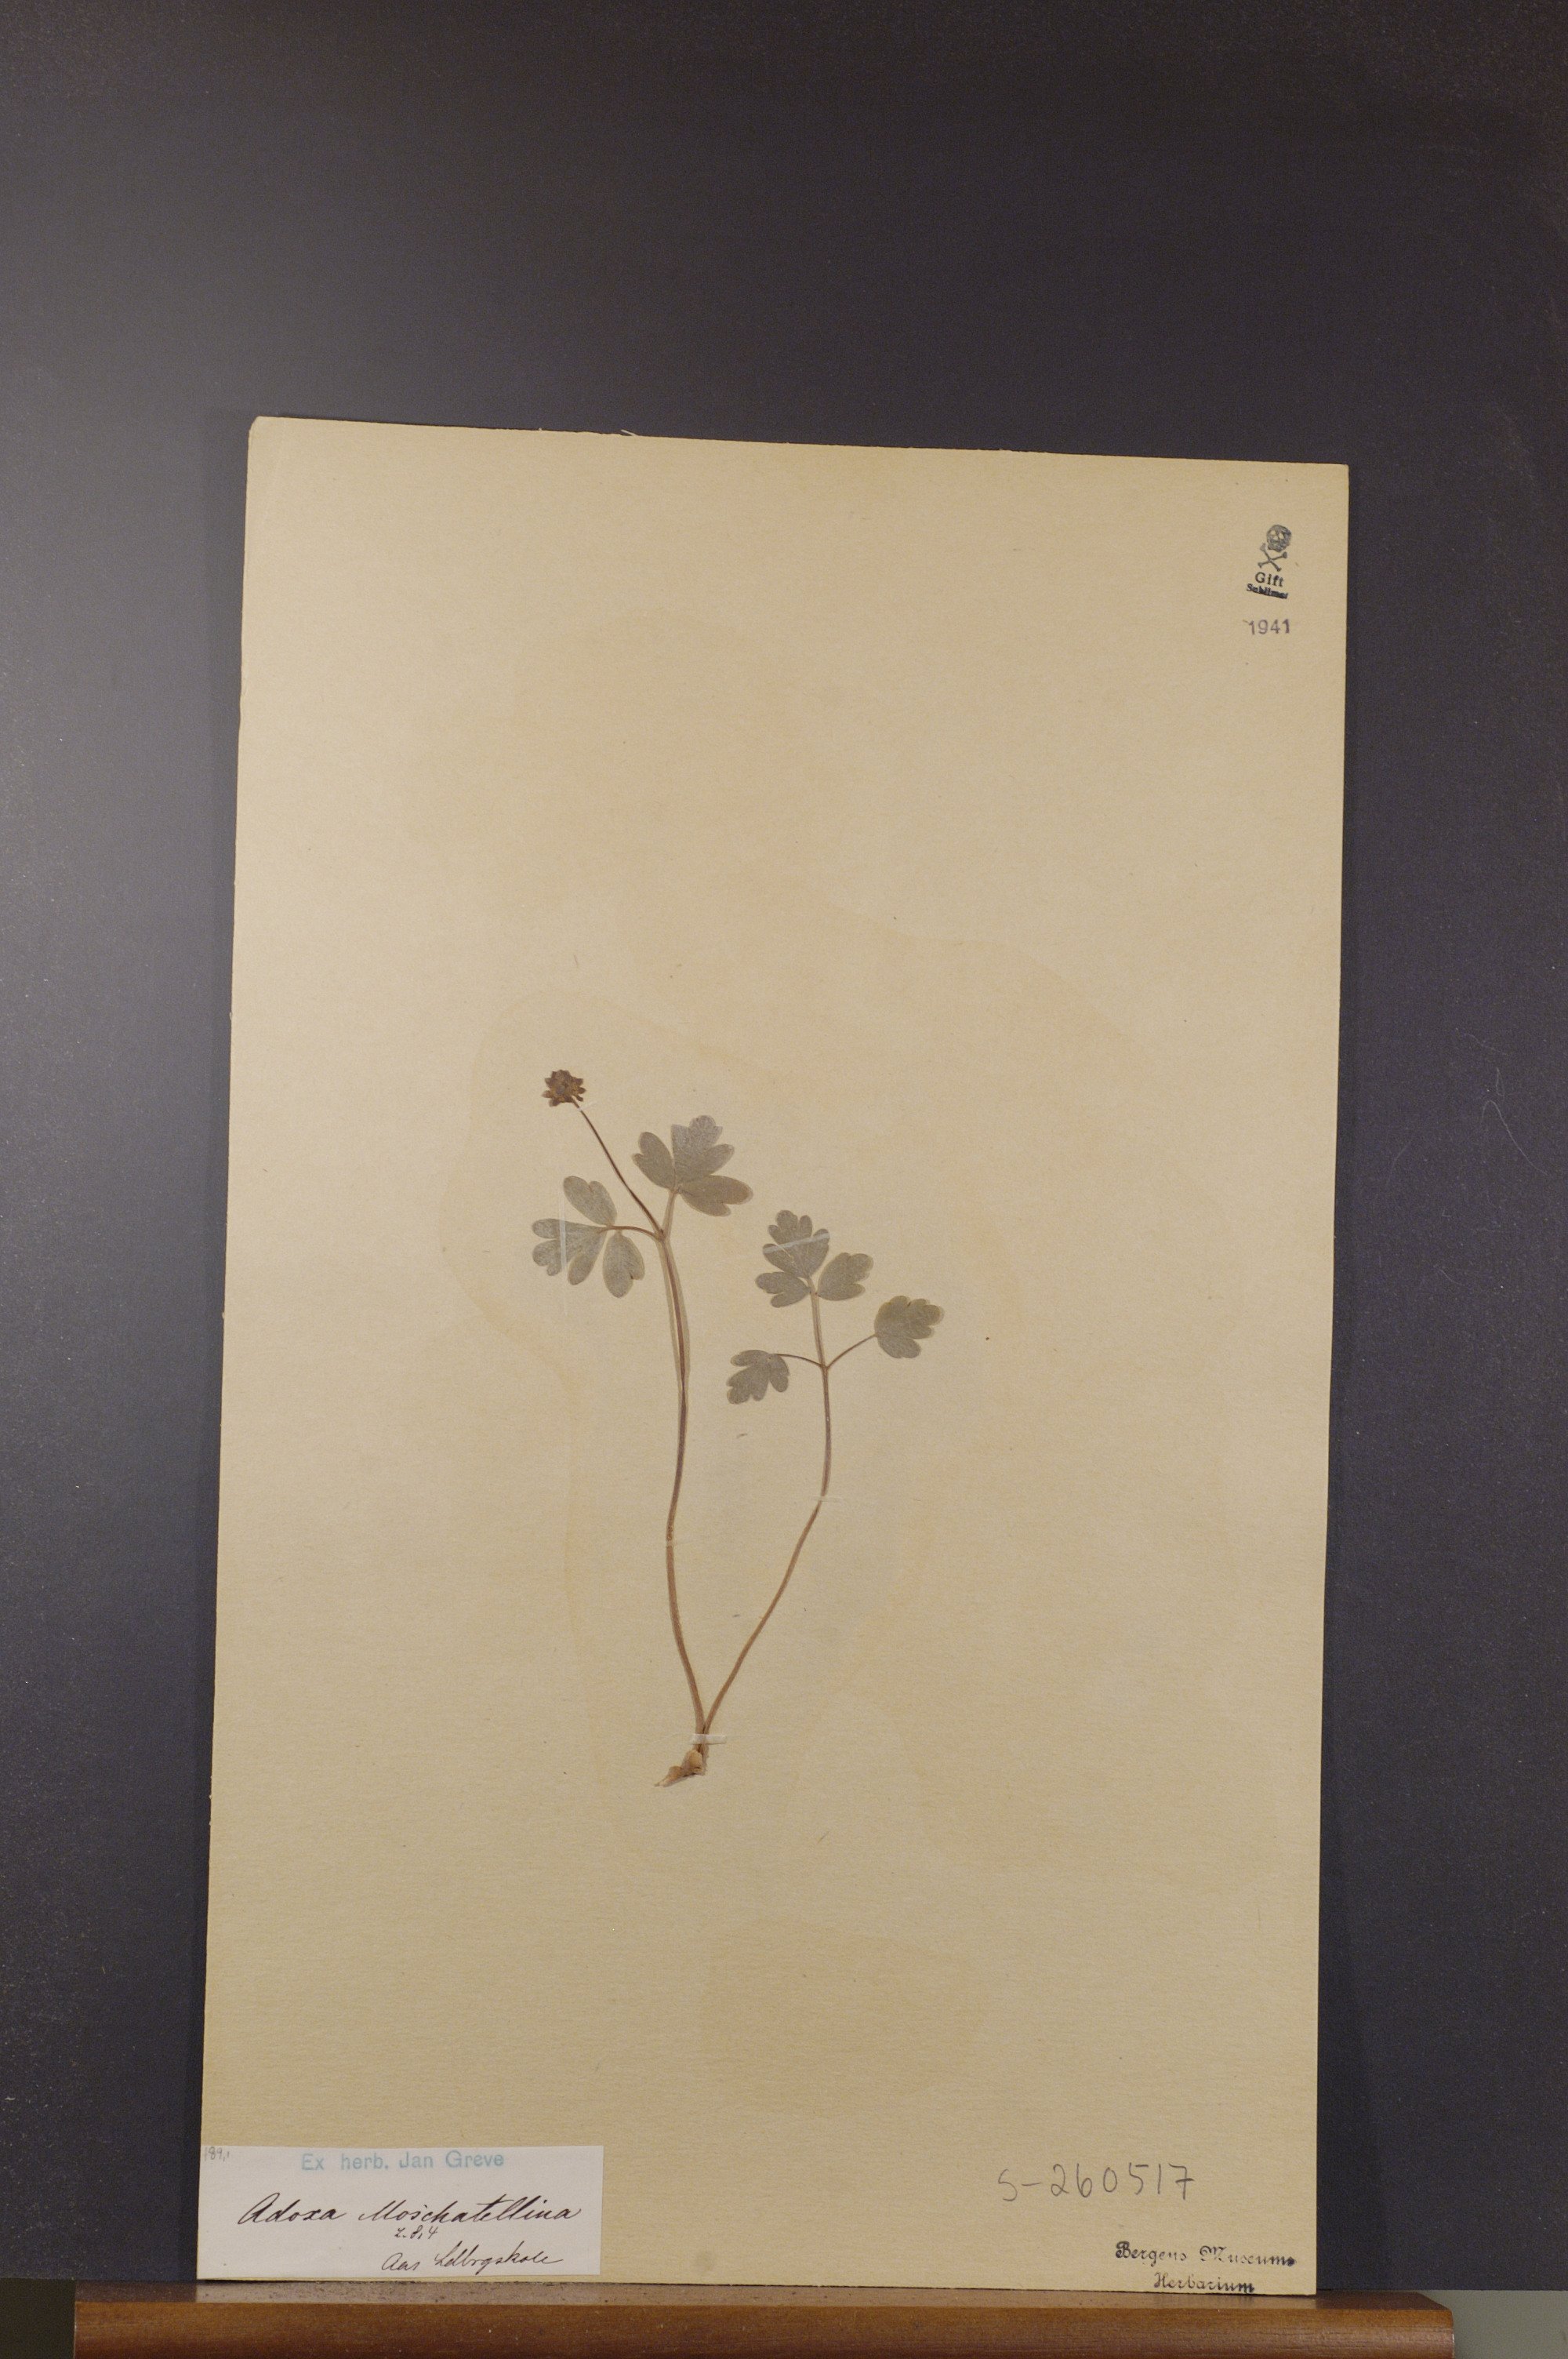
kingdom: Plantae
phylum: Tracheophyta
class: Magnoliopsida
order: Dipsacales
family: Viburnaceae
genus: Adoxa
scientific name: Adoxa moschatellina
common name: Moschatel
